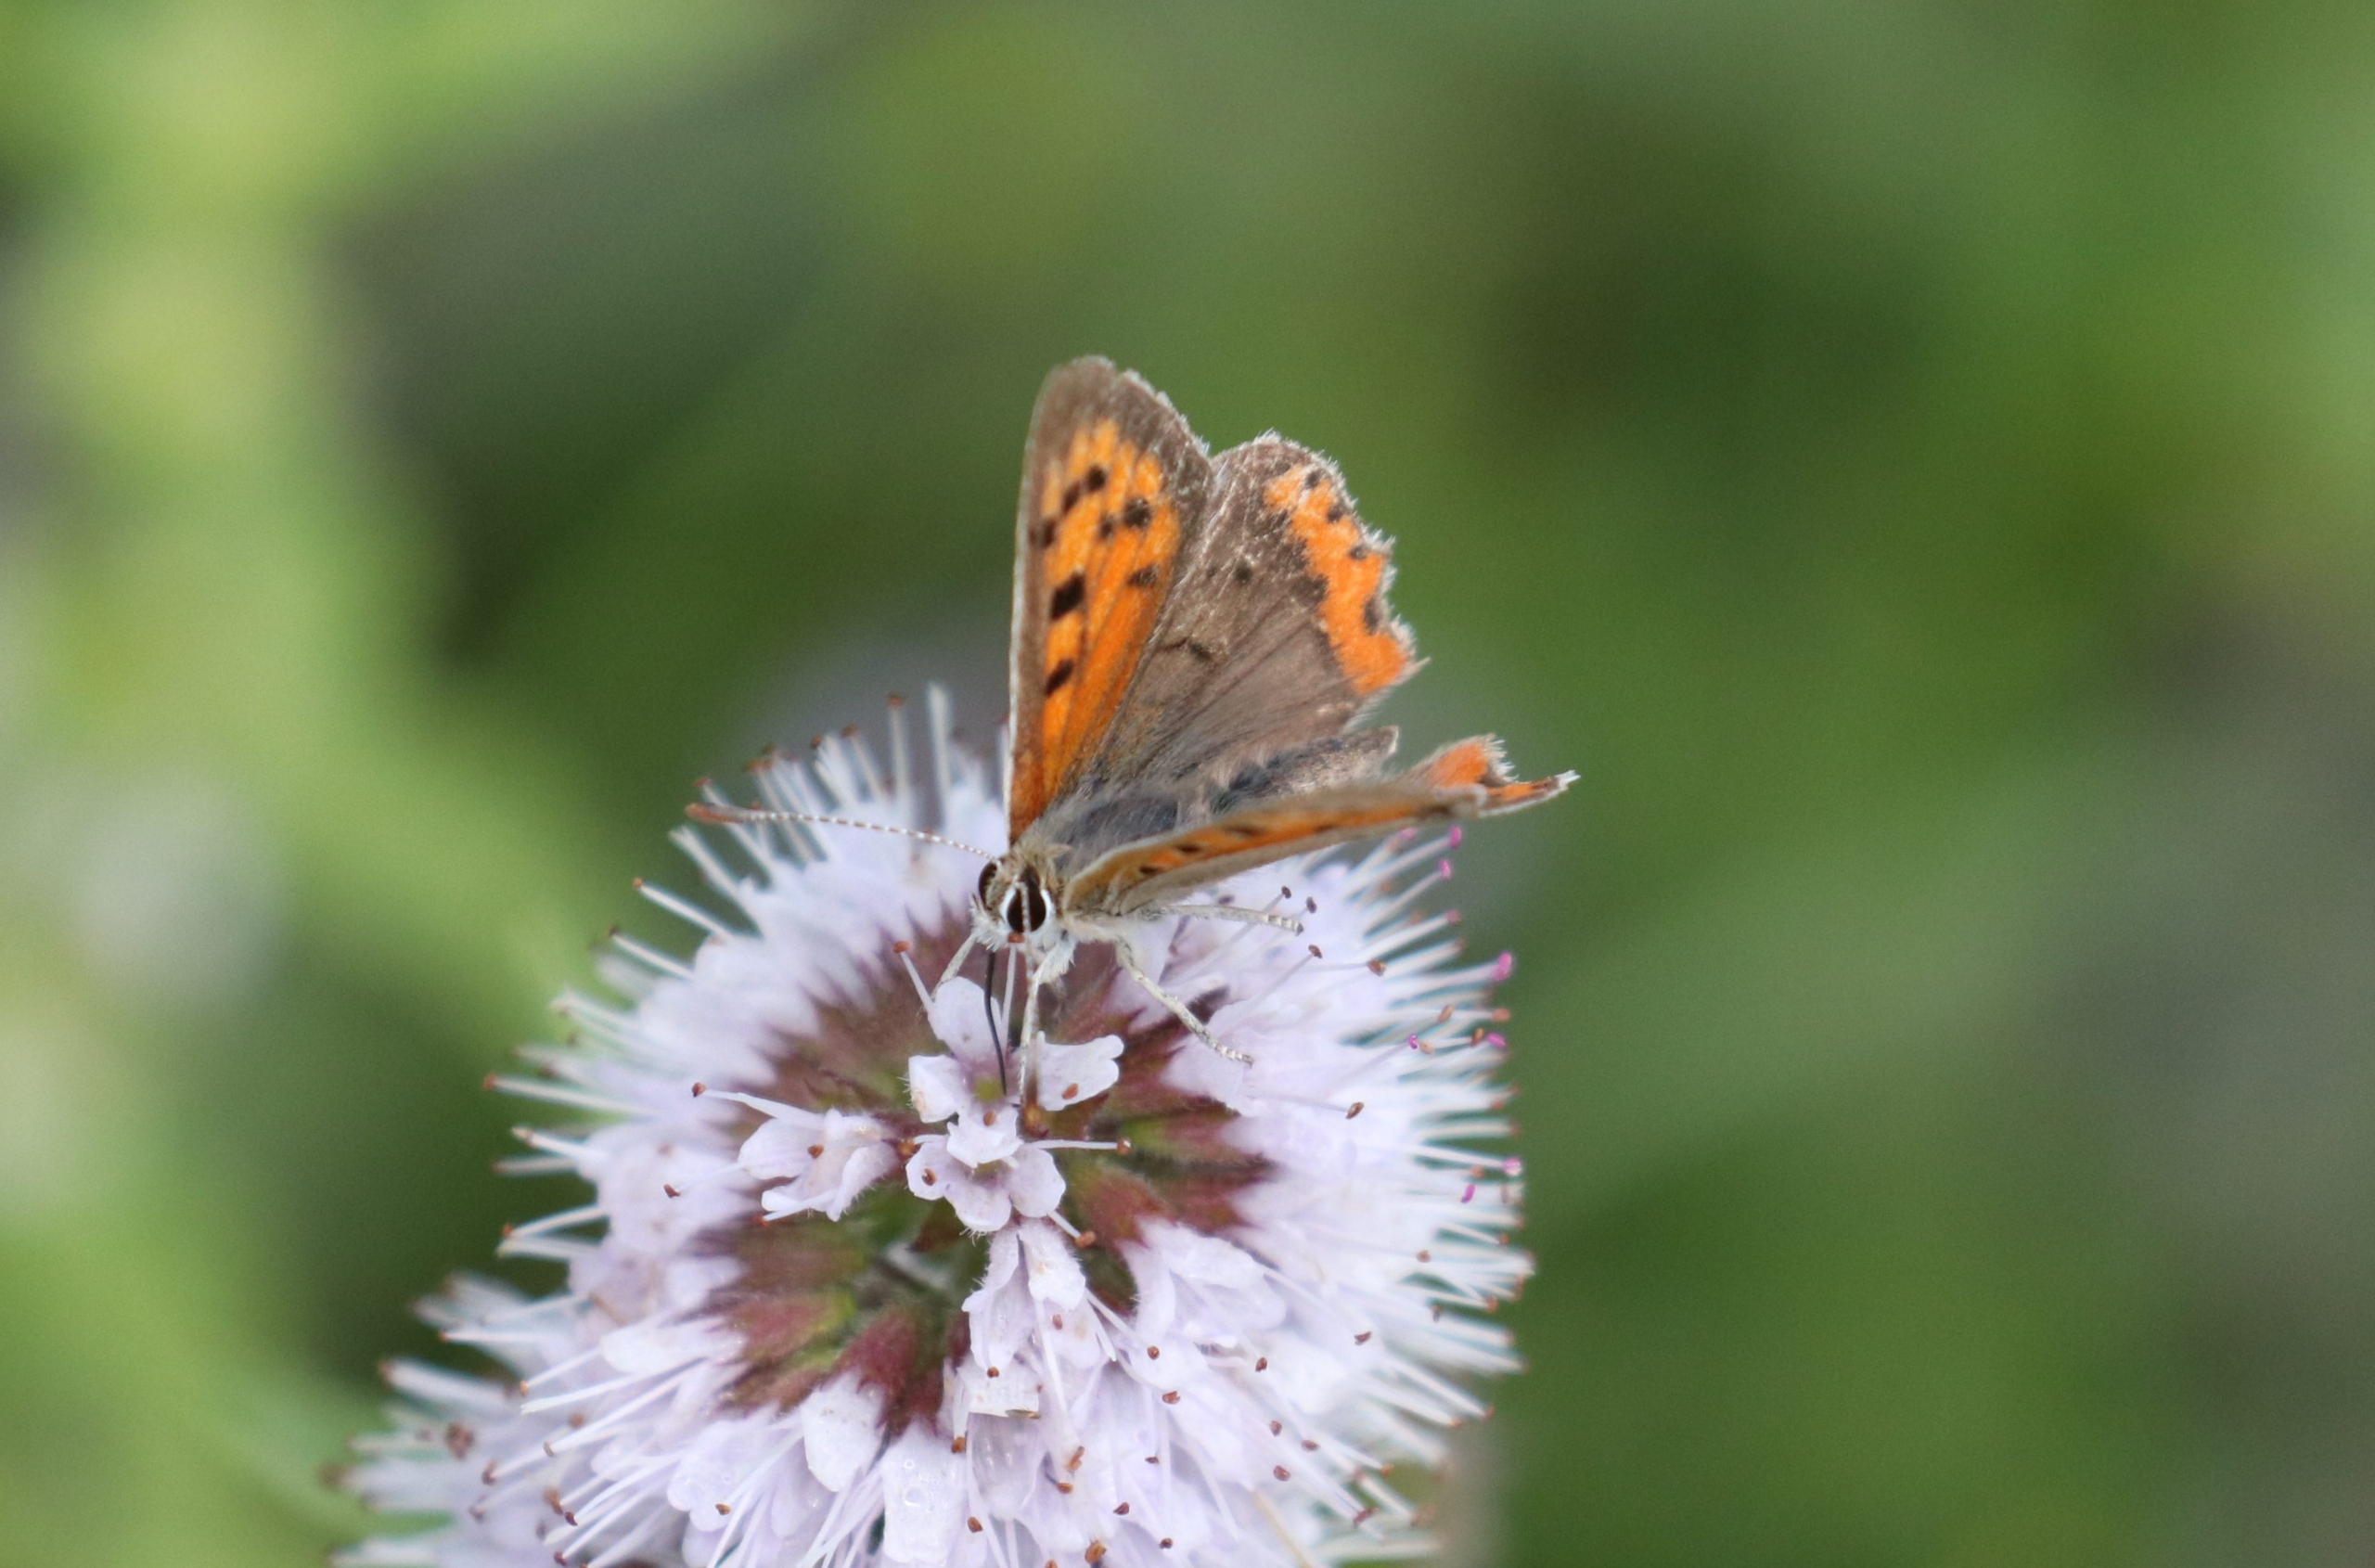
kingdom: Animalia
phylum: Arthropoda
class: Insecta
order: Lepidoptera
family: Lycaenidae
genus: Lycaena
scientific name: Lycaena phlaeas
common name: Lille ildfugl
